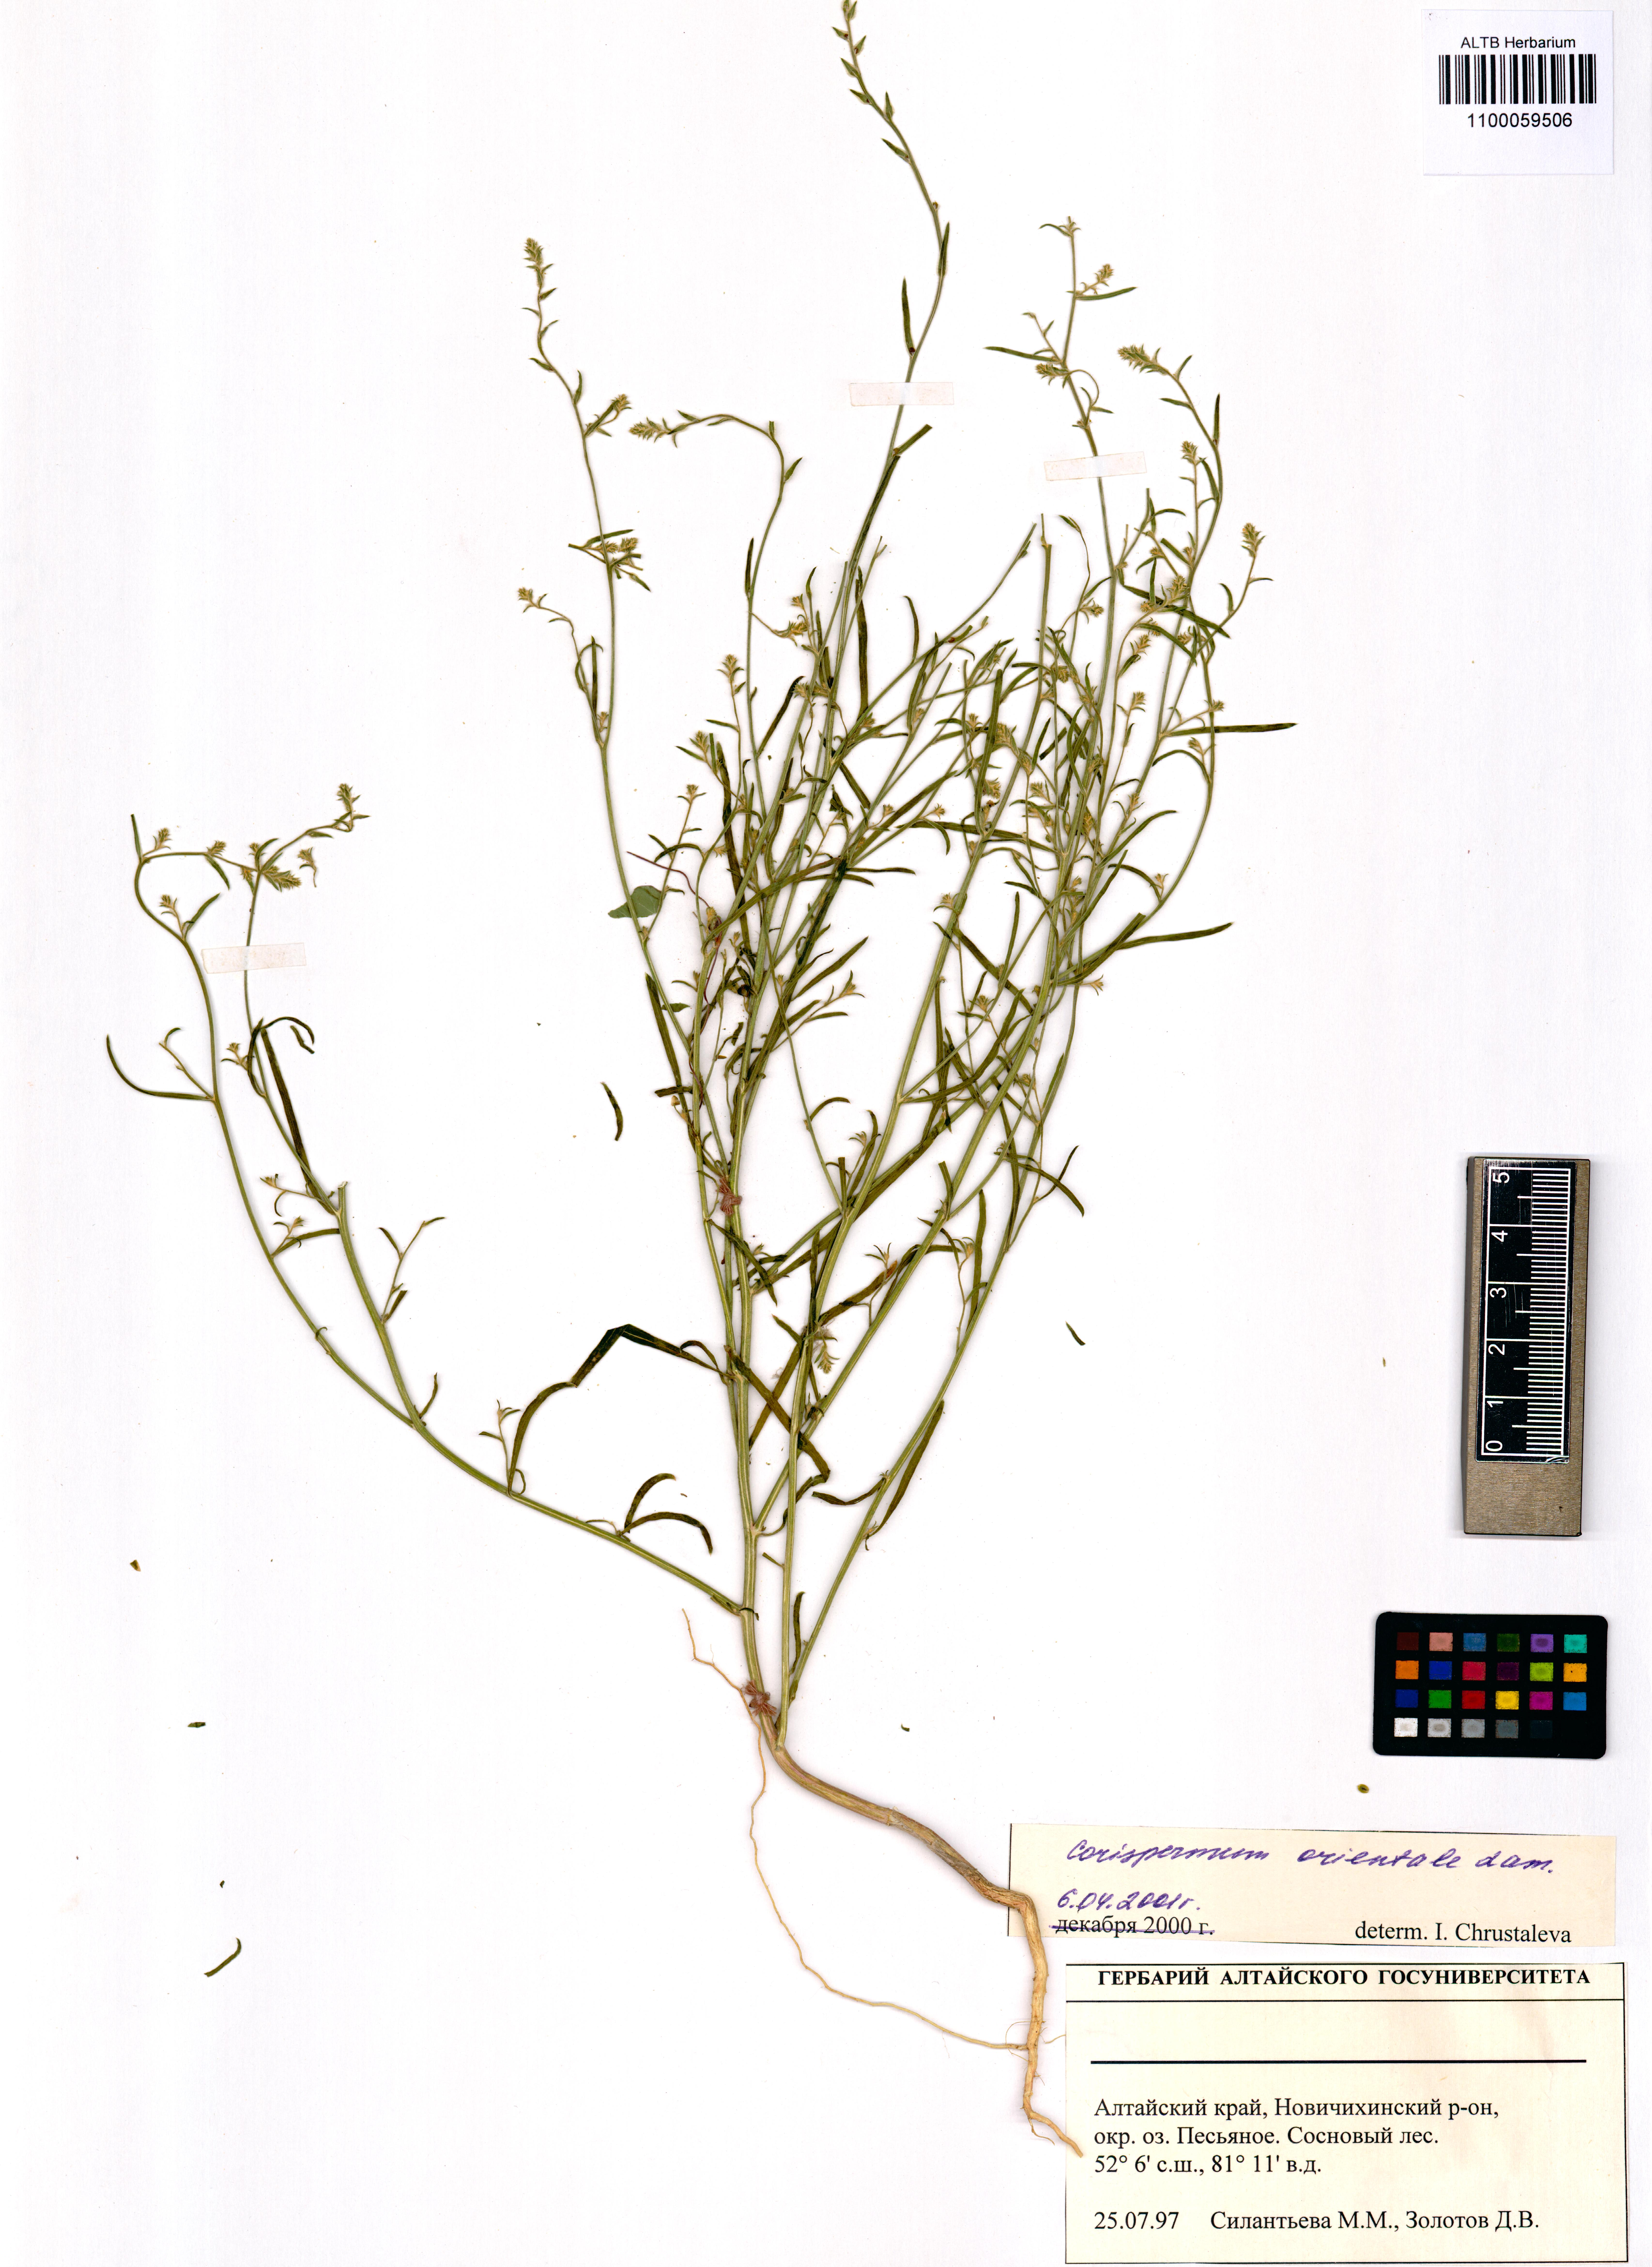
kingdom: Plantae
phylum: Tracheophyta
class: Magnoliopsida
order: Caryophyllales
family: Amaranthaceae
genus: Corispermum
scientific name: Corispermum aralocaspicum
